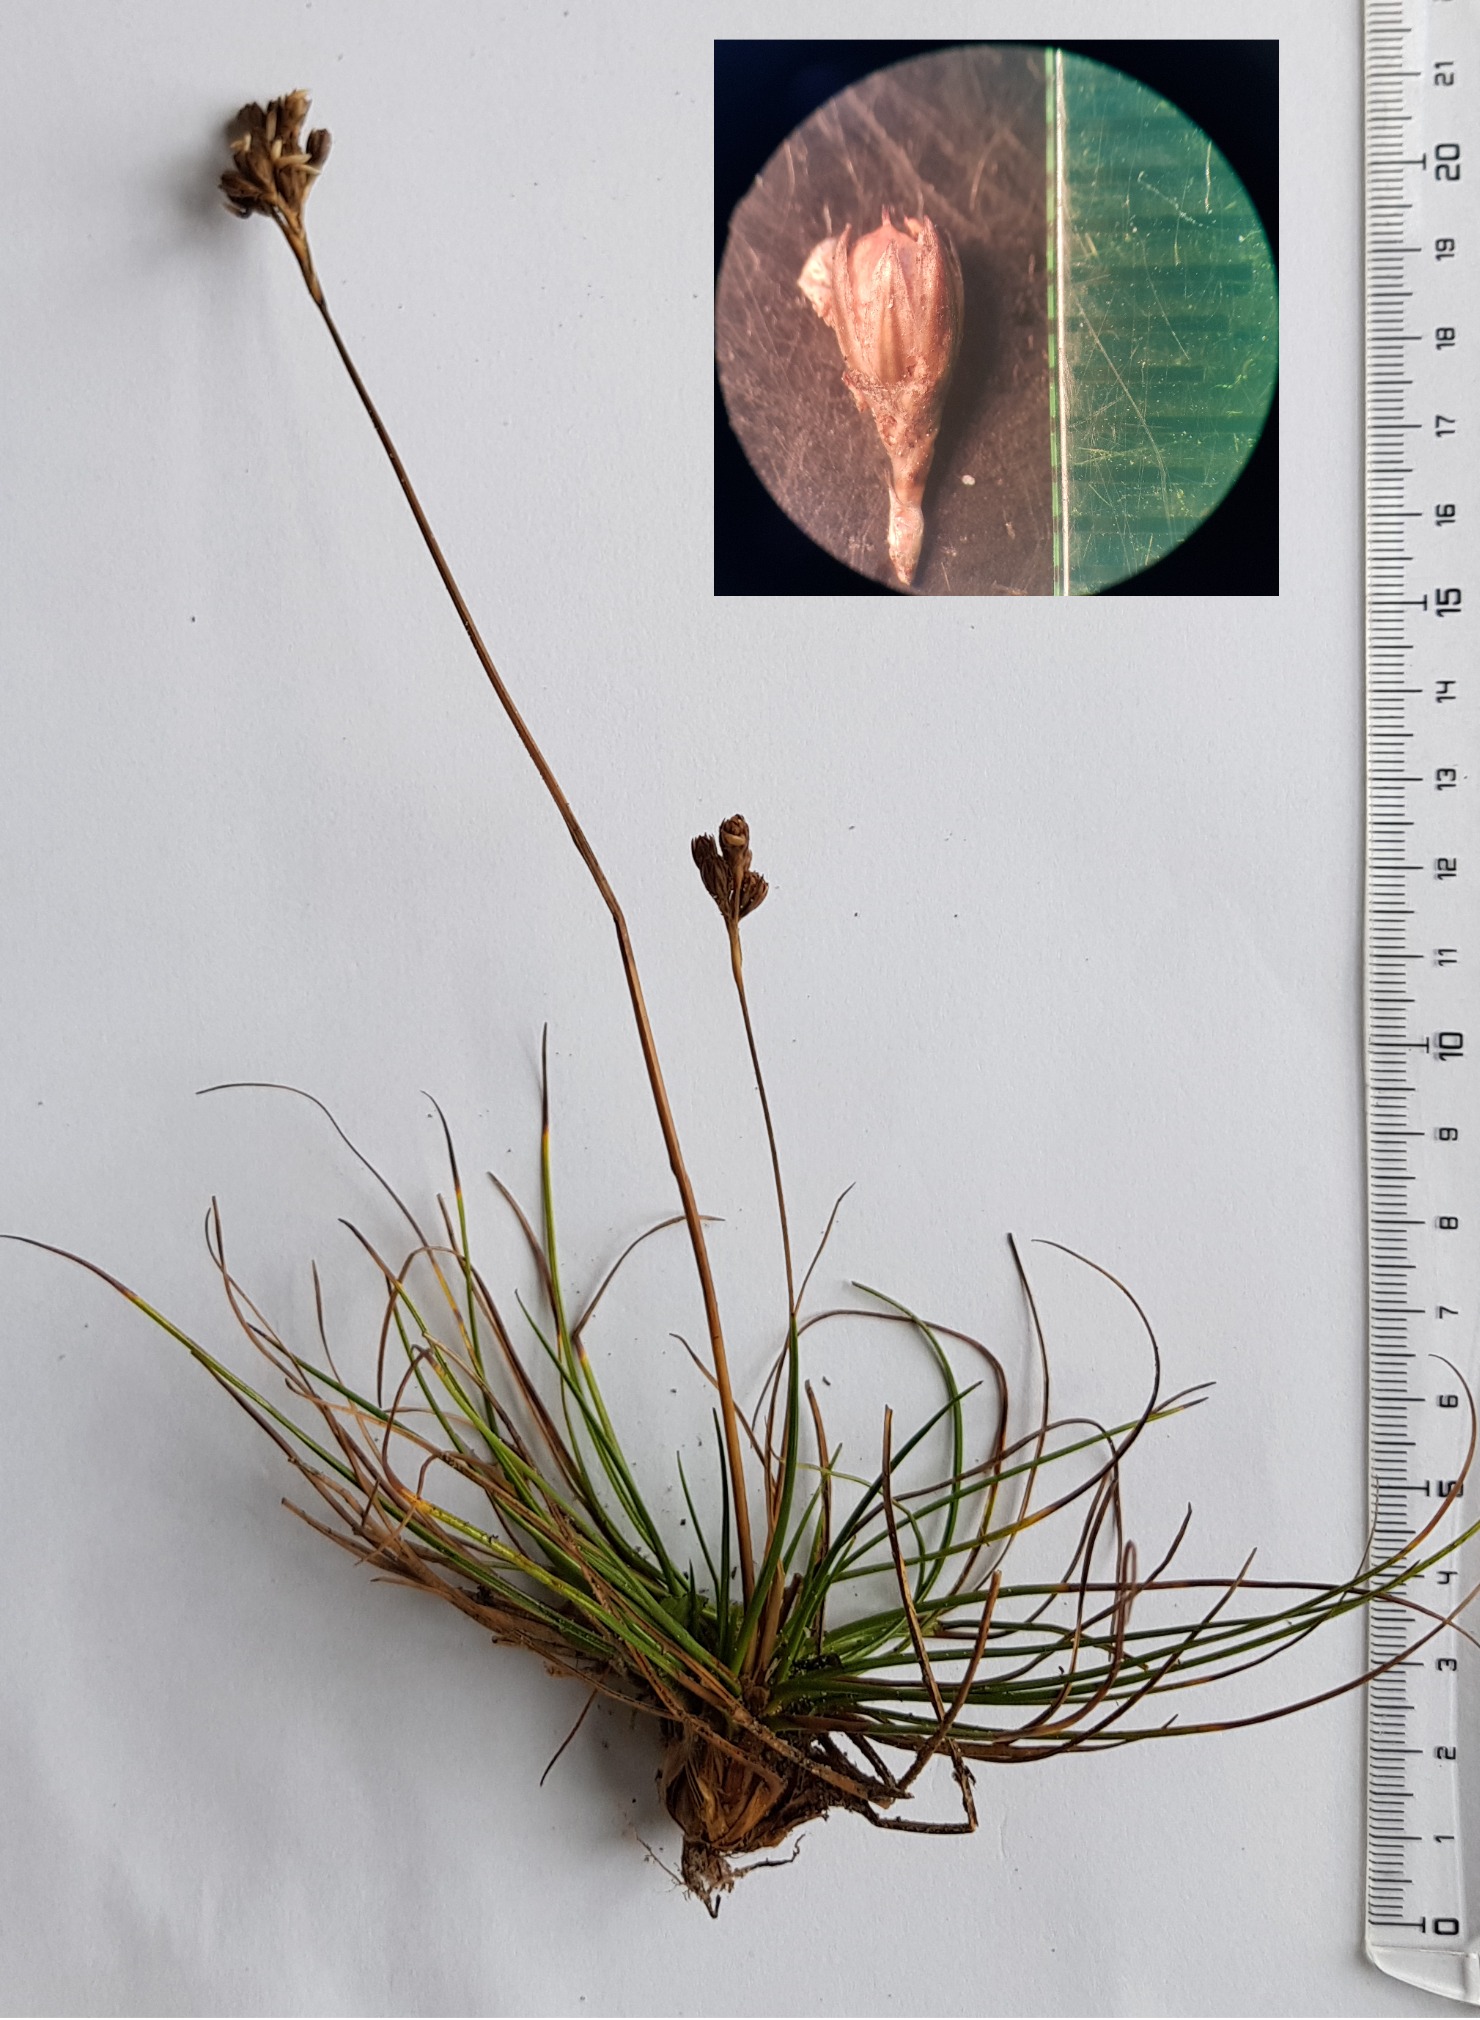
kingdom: Plantae
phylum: Tracheophyta
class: Liliopsida
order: Poales
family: Juncaceae
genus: Juncus
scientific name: Juncus squarrosus
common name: Børste-siv
